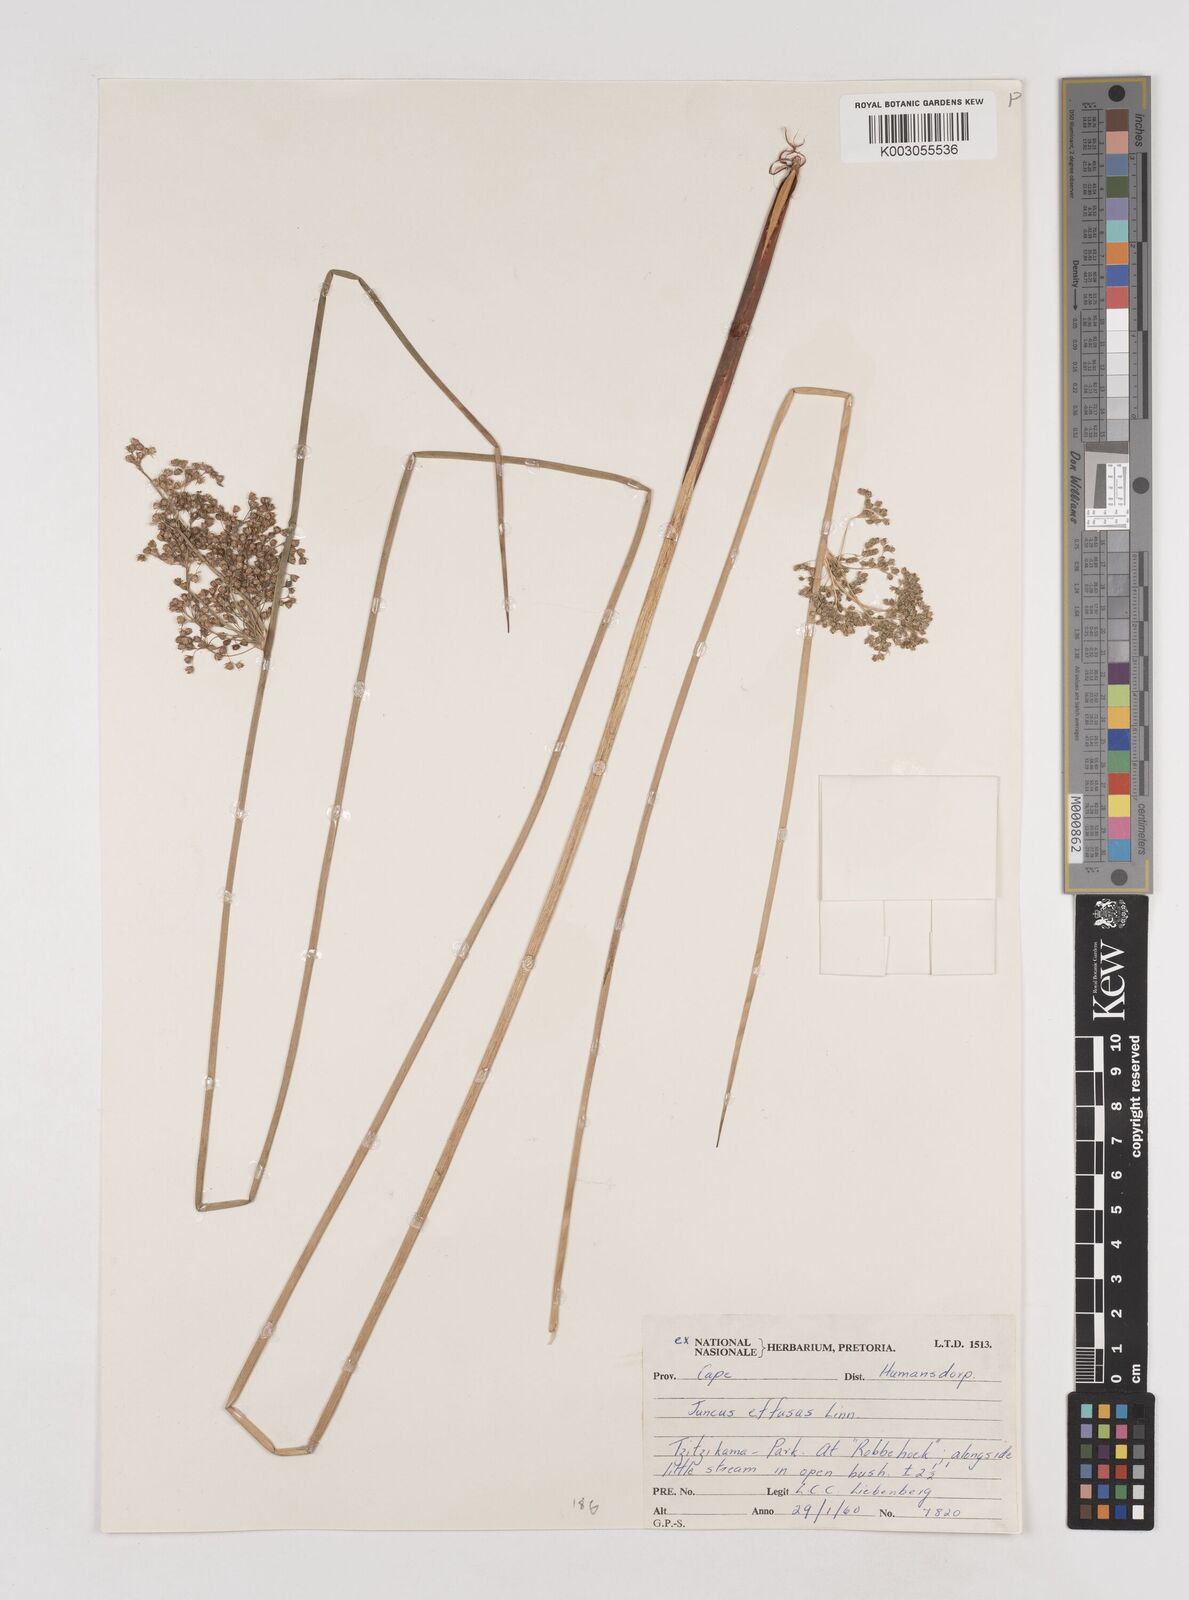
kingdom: Plantae
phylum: Tracheophyta
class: Liliopsida
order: Poales
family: Juncaceae
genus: Juncus
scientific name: Juncus effusus
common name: Soft rush
